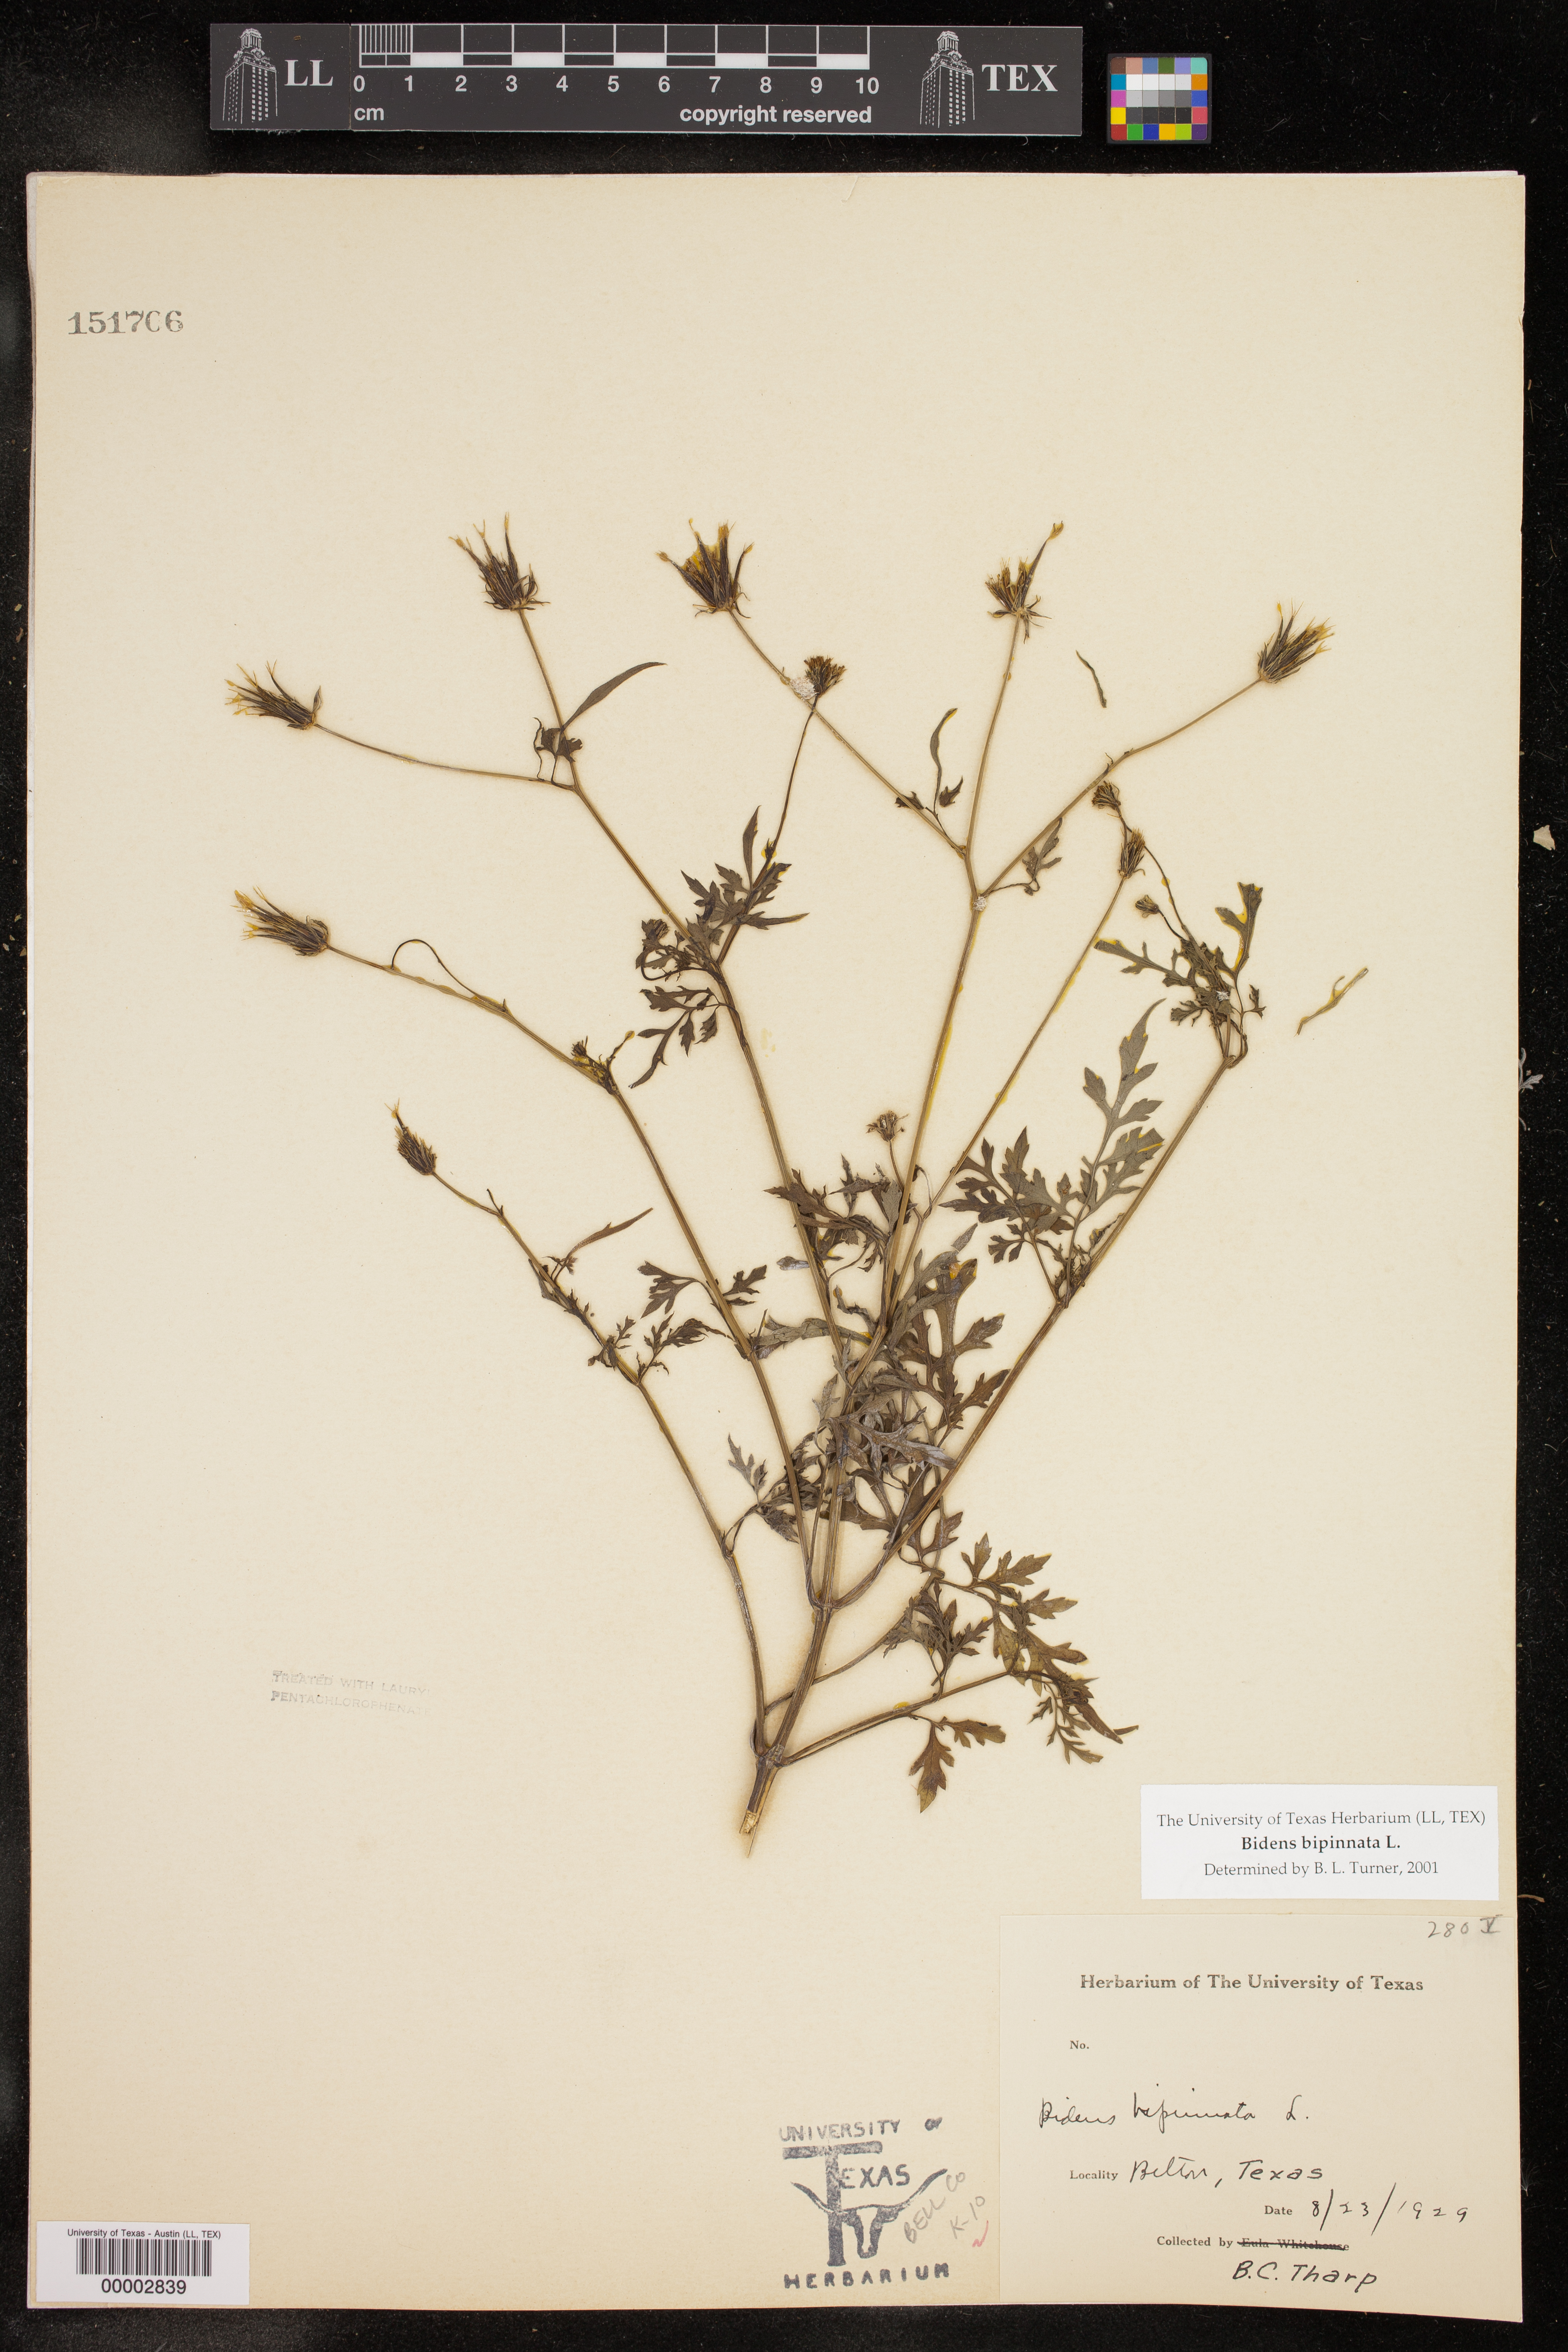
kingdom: Plantae
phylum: Tracheophyta
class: Magnoliopsida
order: Asterales
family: Asteraceae
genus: Bidens
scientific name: Bidens bipinnata
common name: Spanish-needles
